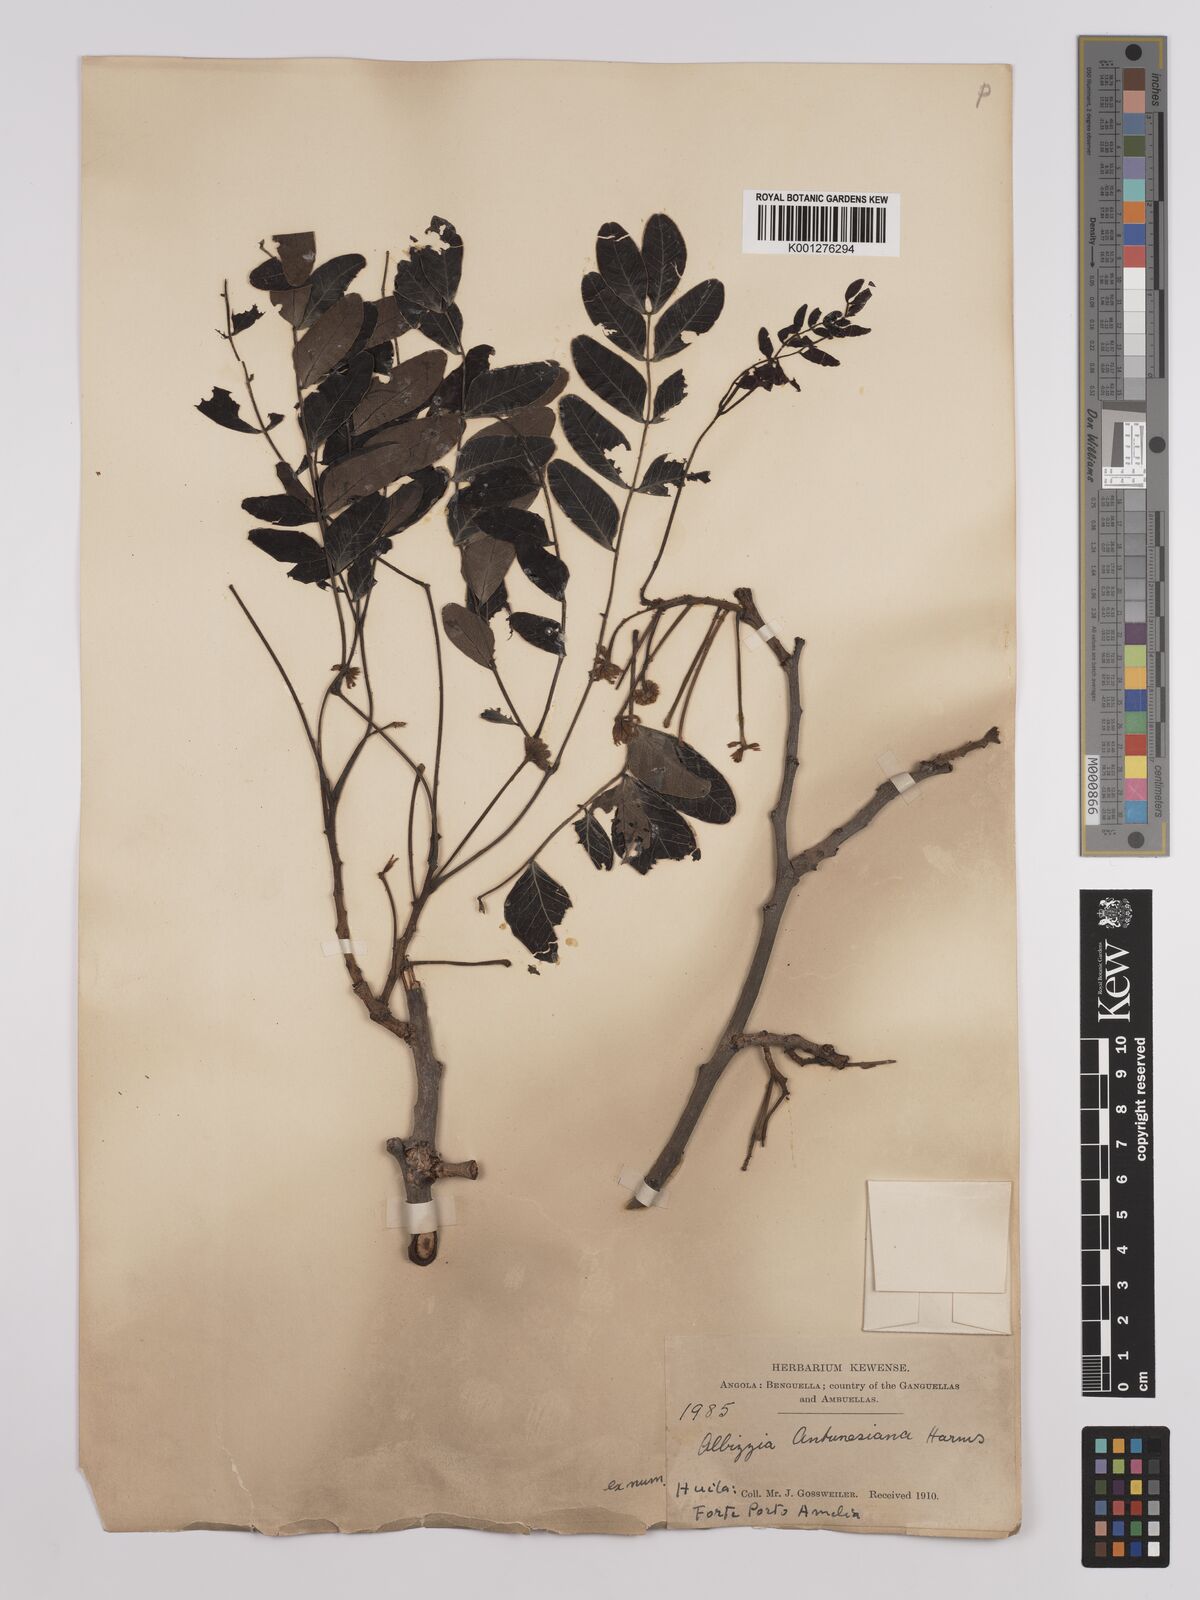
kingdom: Plantae
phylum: Tracheophyta
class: Magnoliopsida
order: Fabales
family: Fabaceae
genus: Albizia
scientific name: Albizia antunesiana
